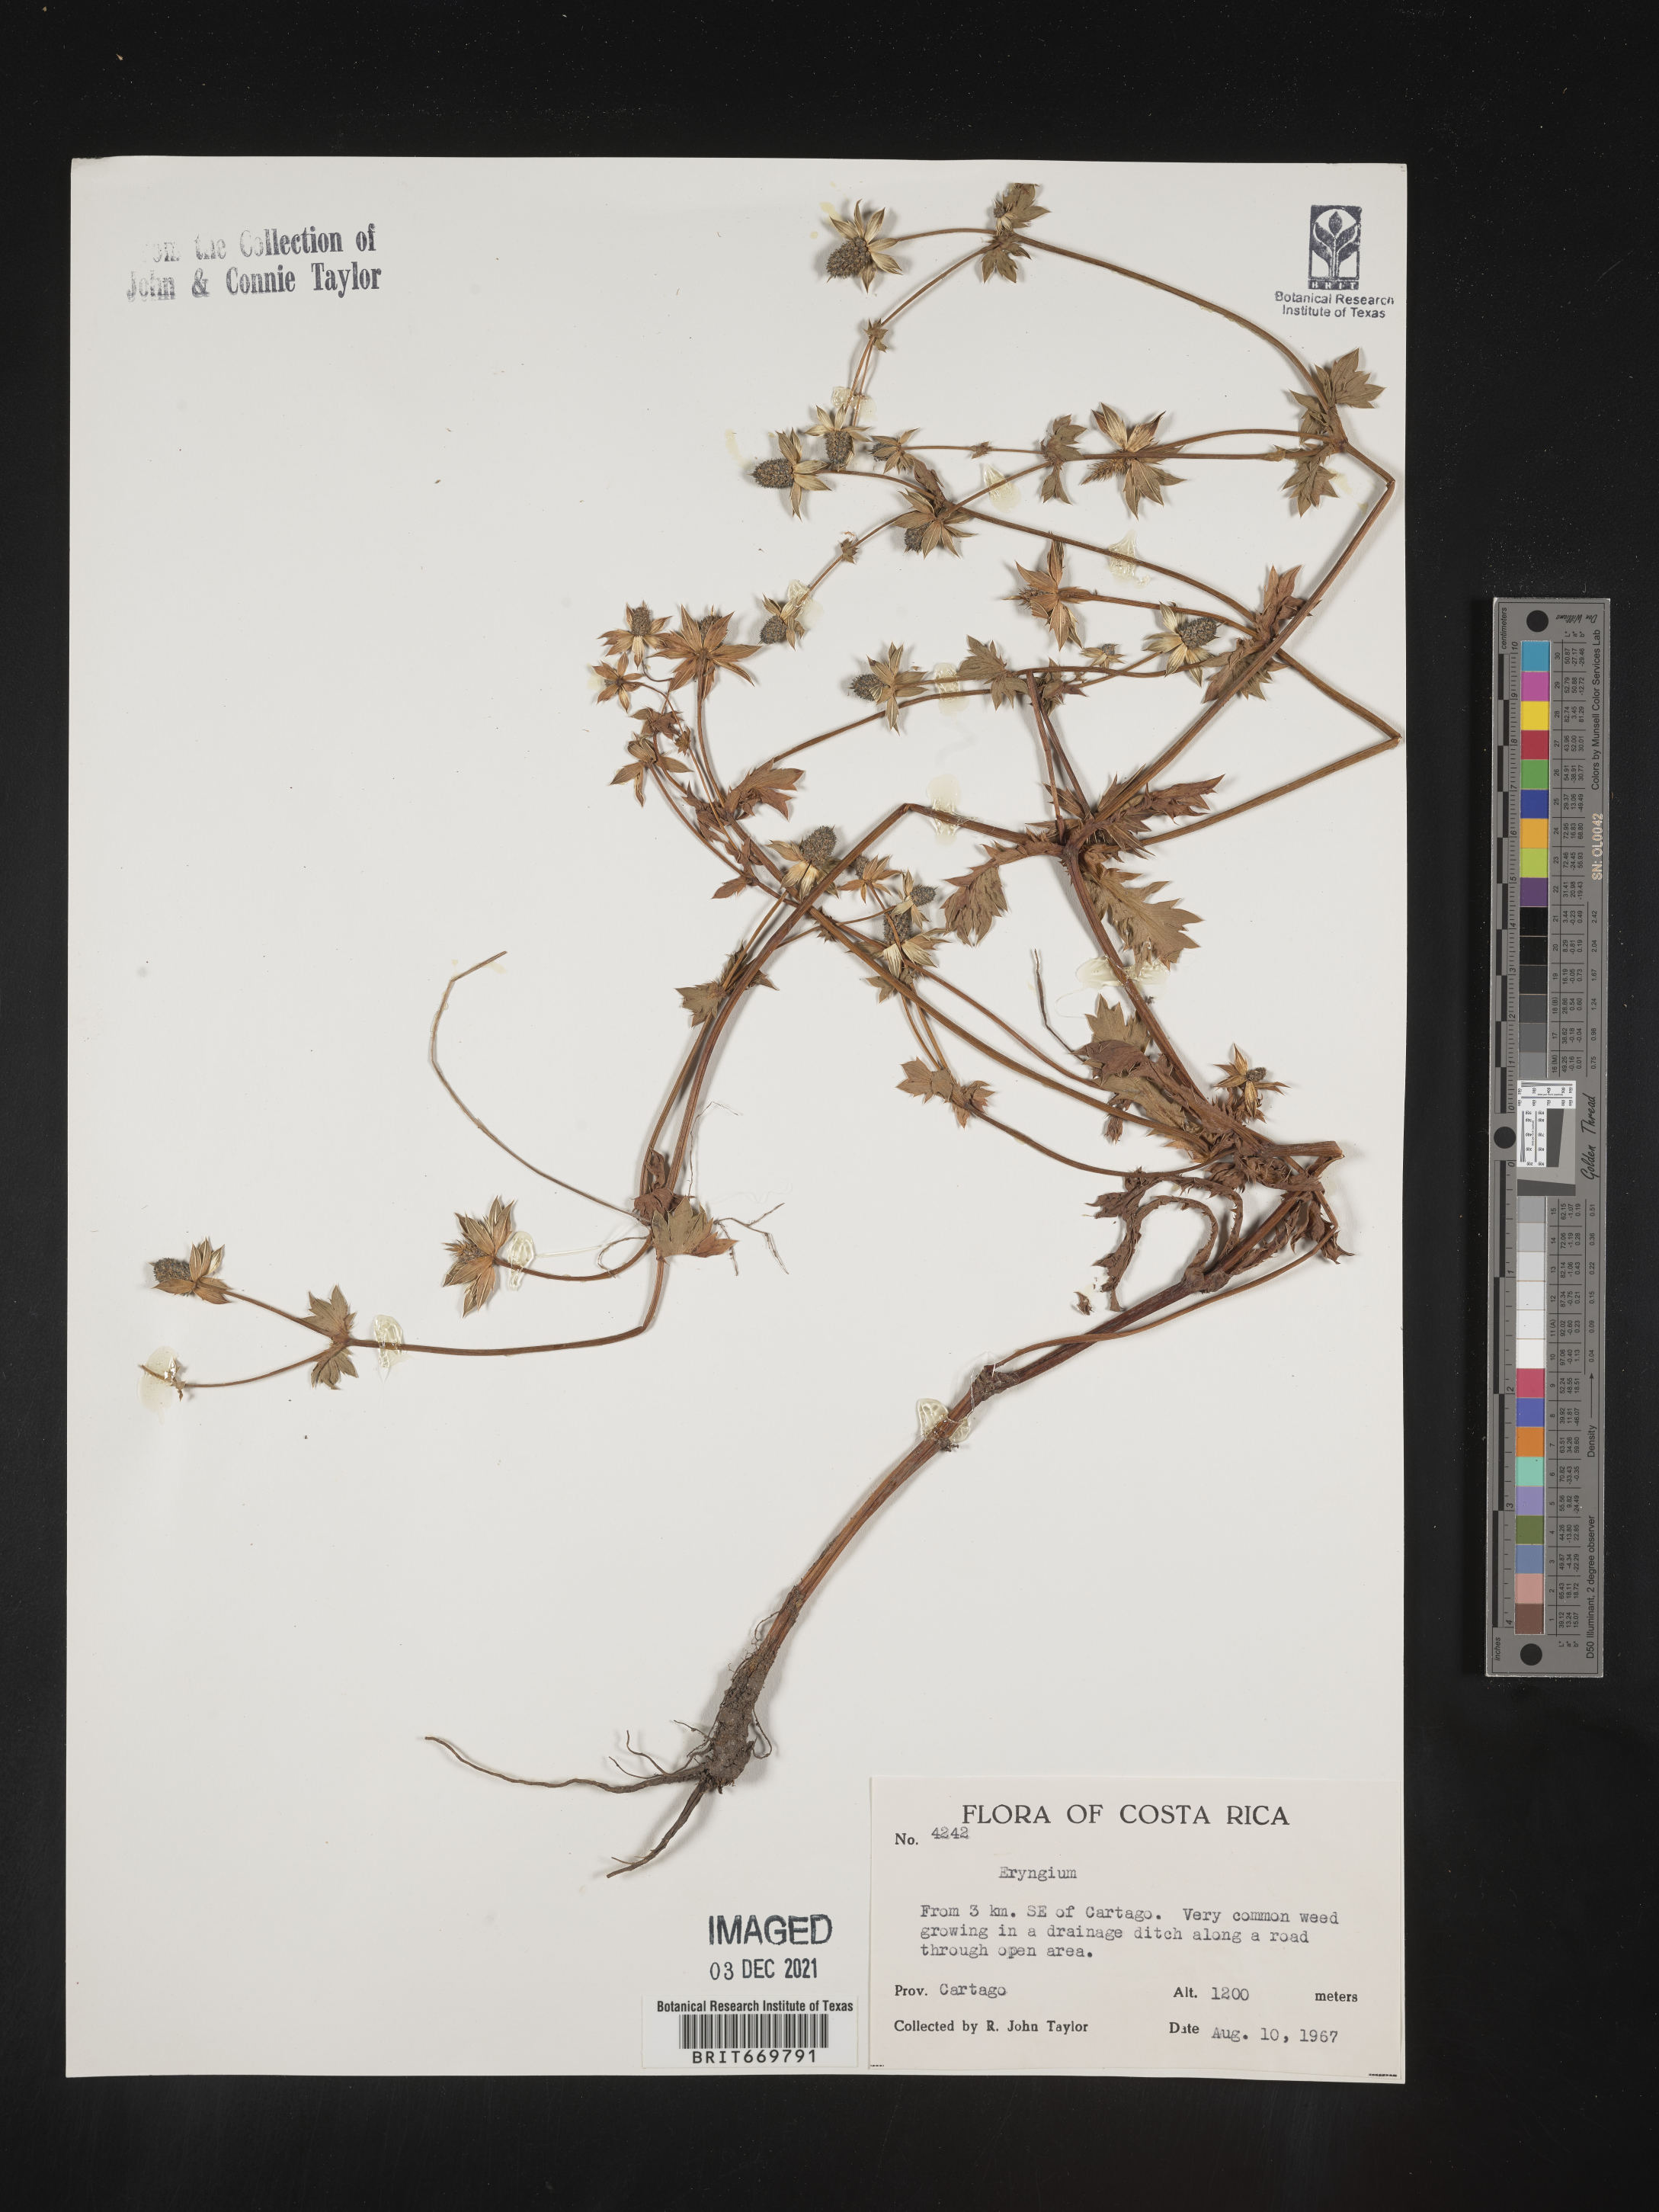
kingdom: Plantae
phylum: Tracheophyta
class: Magnoliopsida
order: Apiales
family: Apiaceae
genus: Eryngium
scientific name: Eryngium
